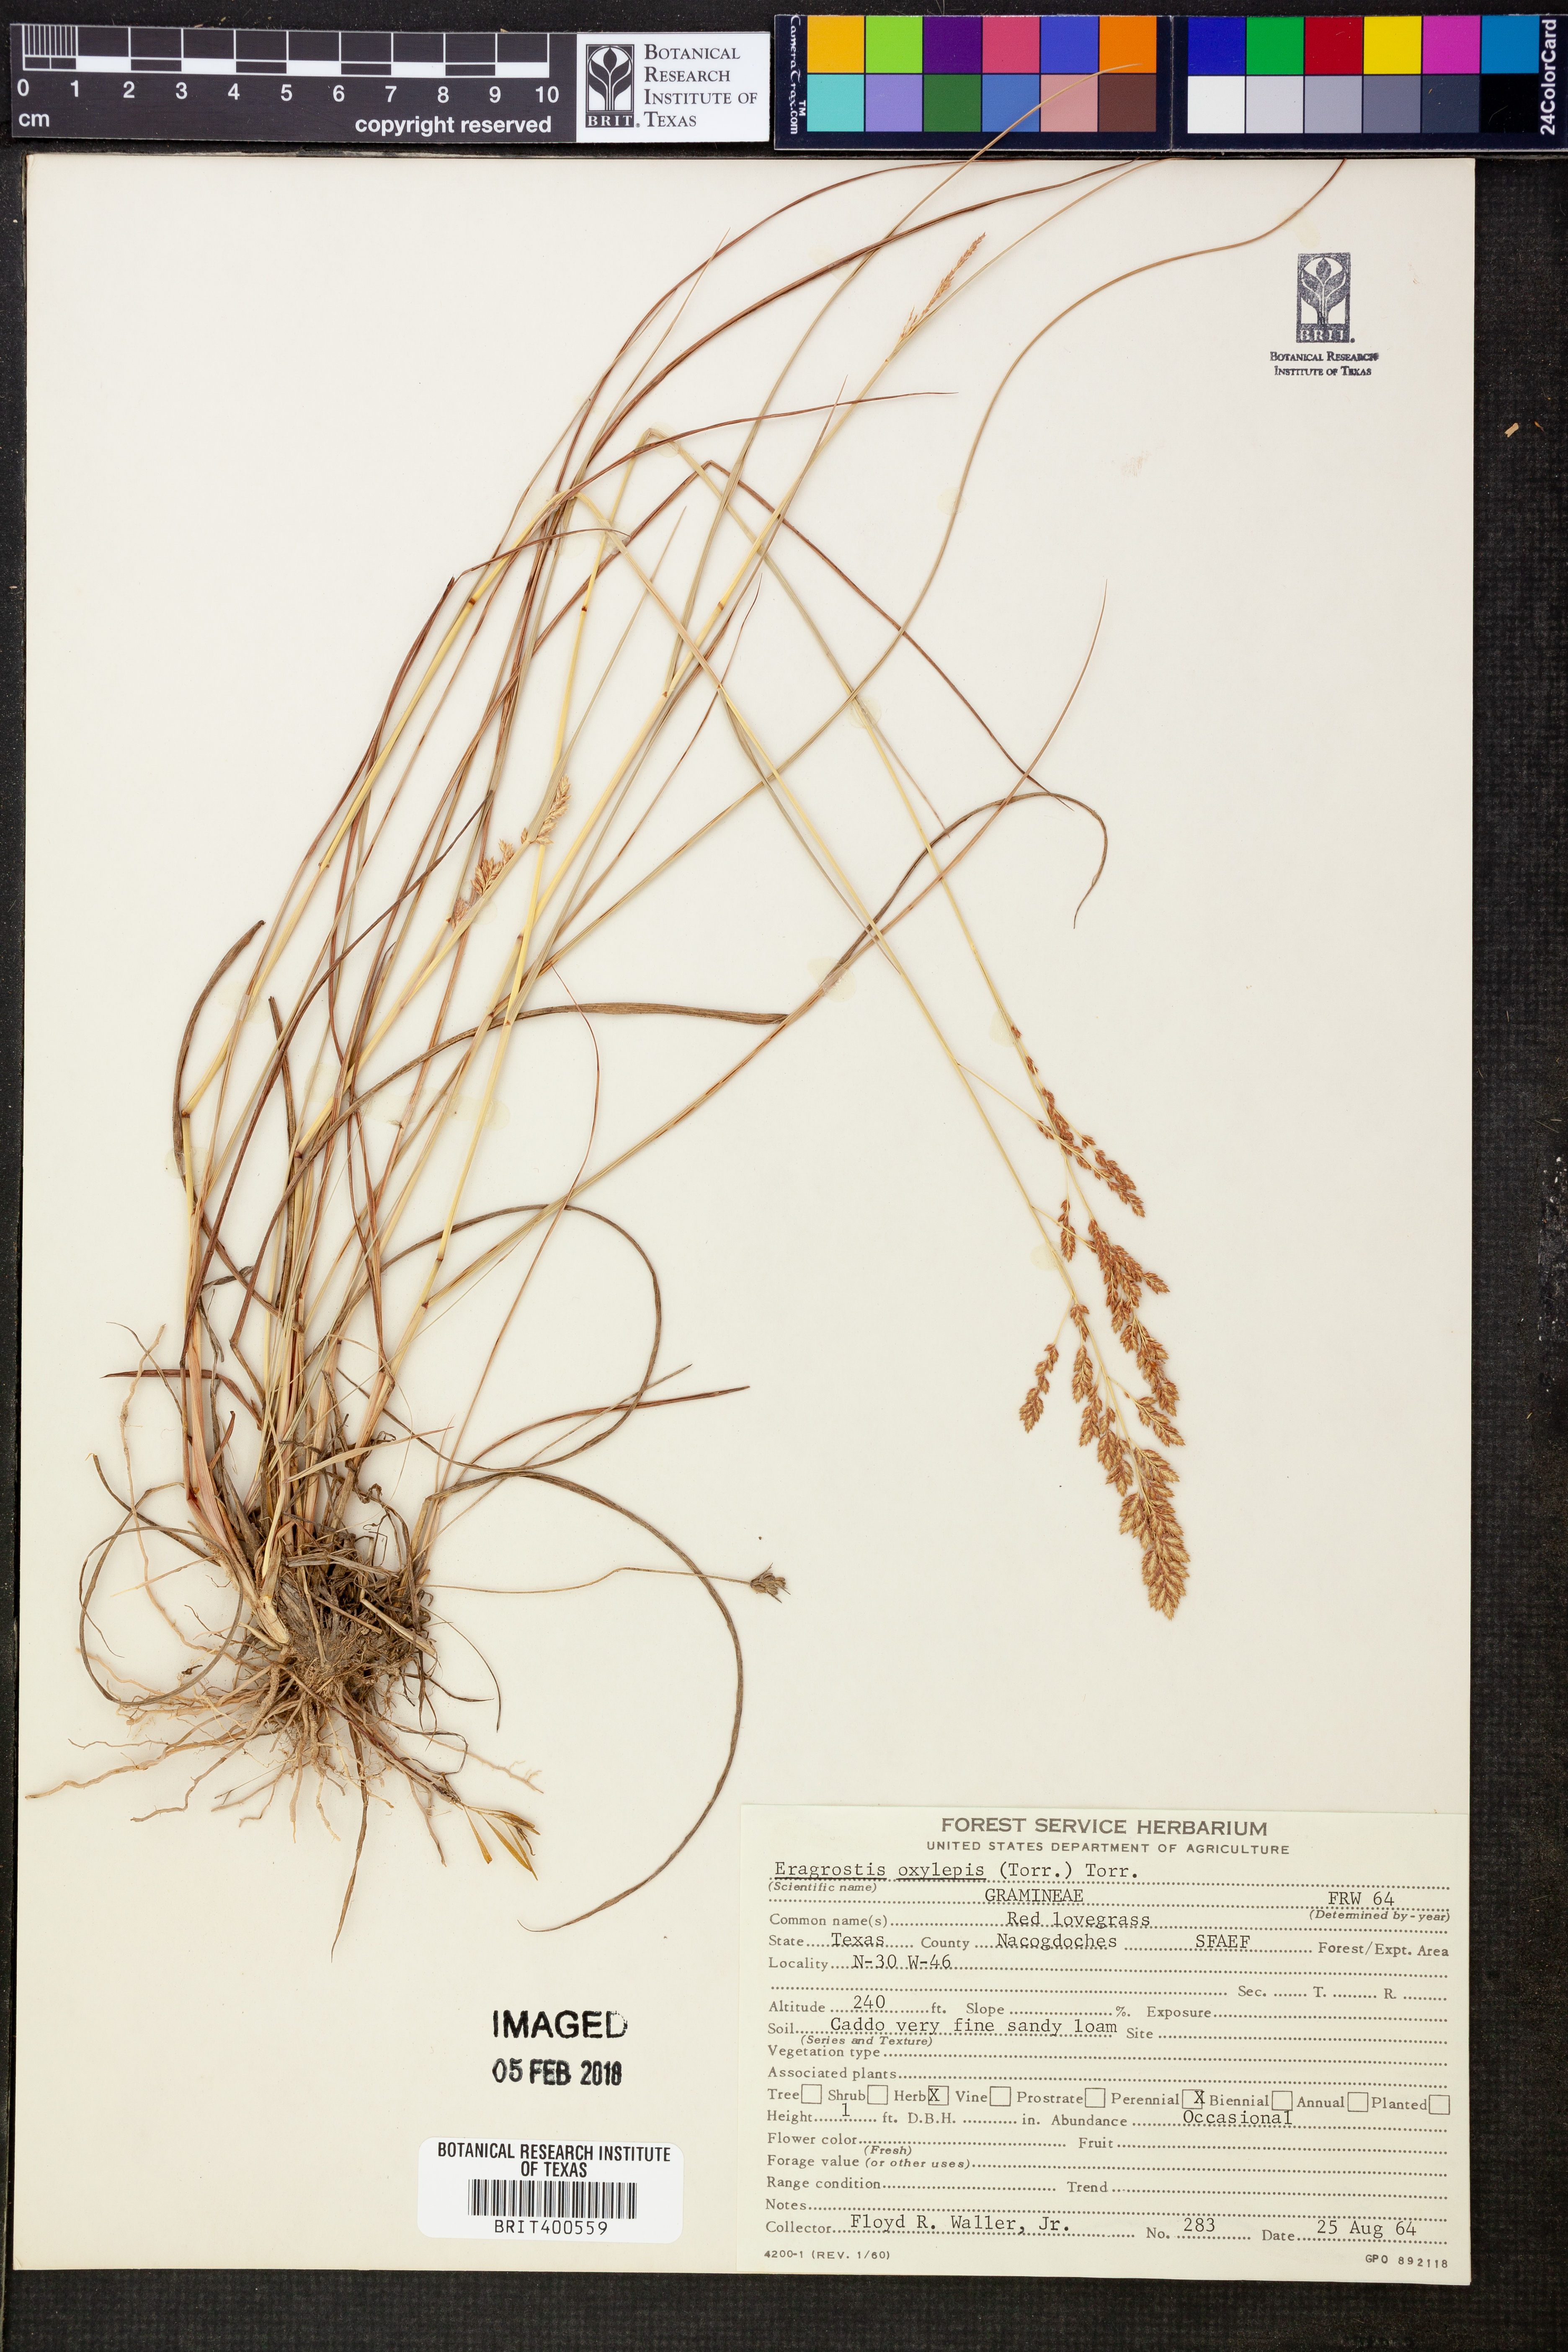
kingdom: Plantae
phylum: Tracheophyta
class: Liliopsida
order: Poales
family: Poaceae
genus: Eragrostis
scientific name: Eragrostis secundiflora
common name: Red love grass
